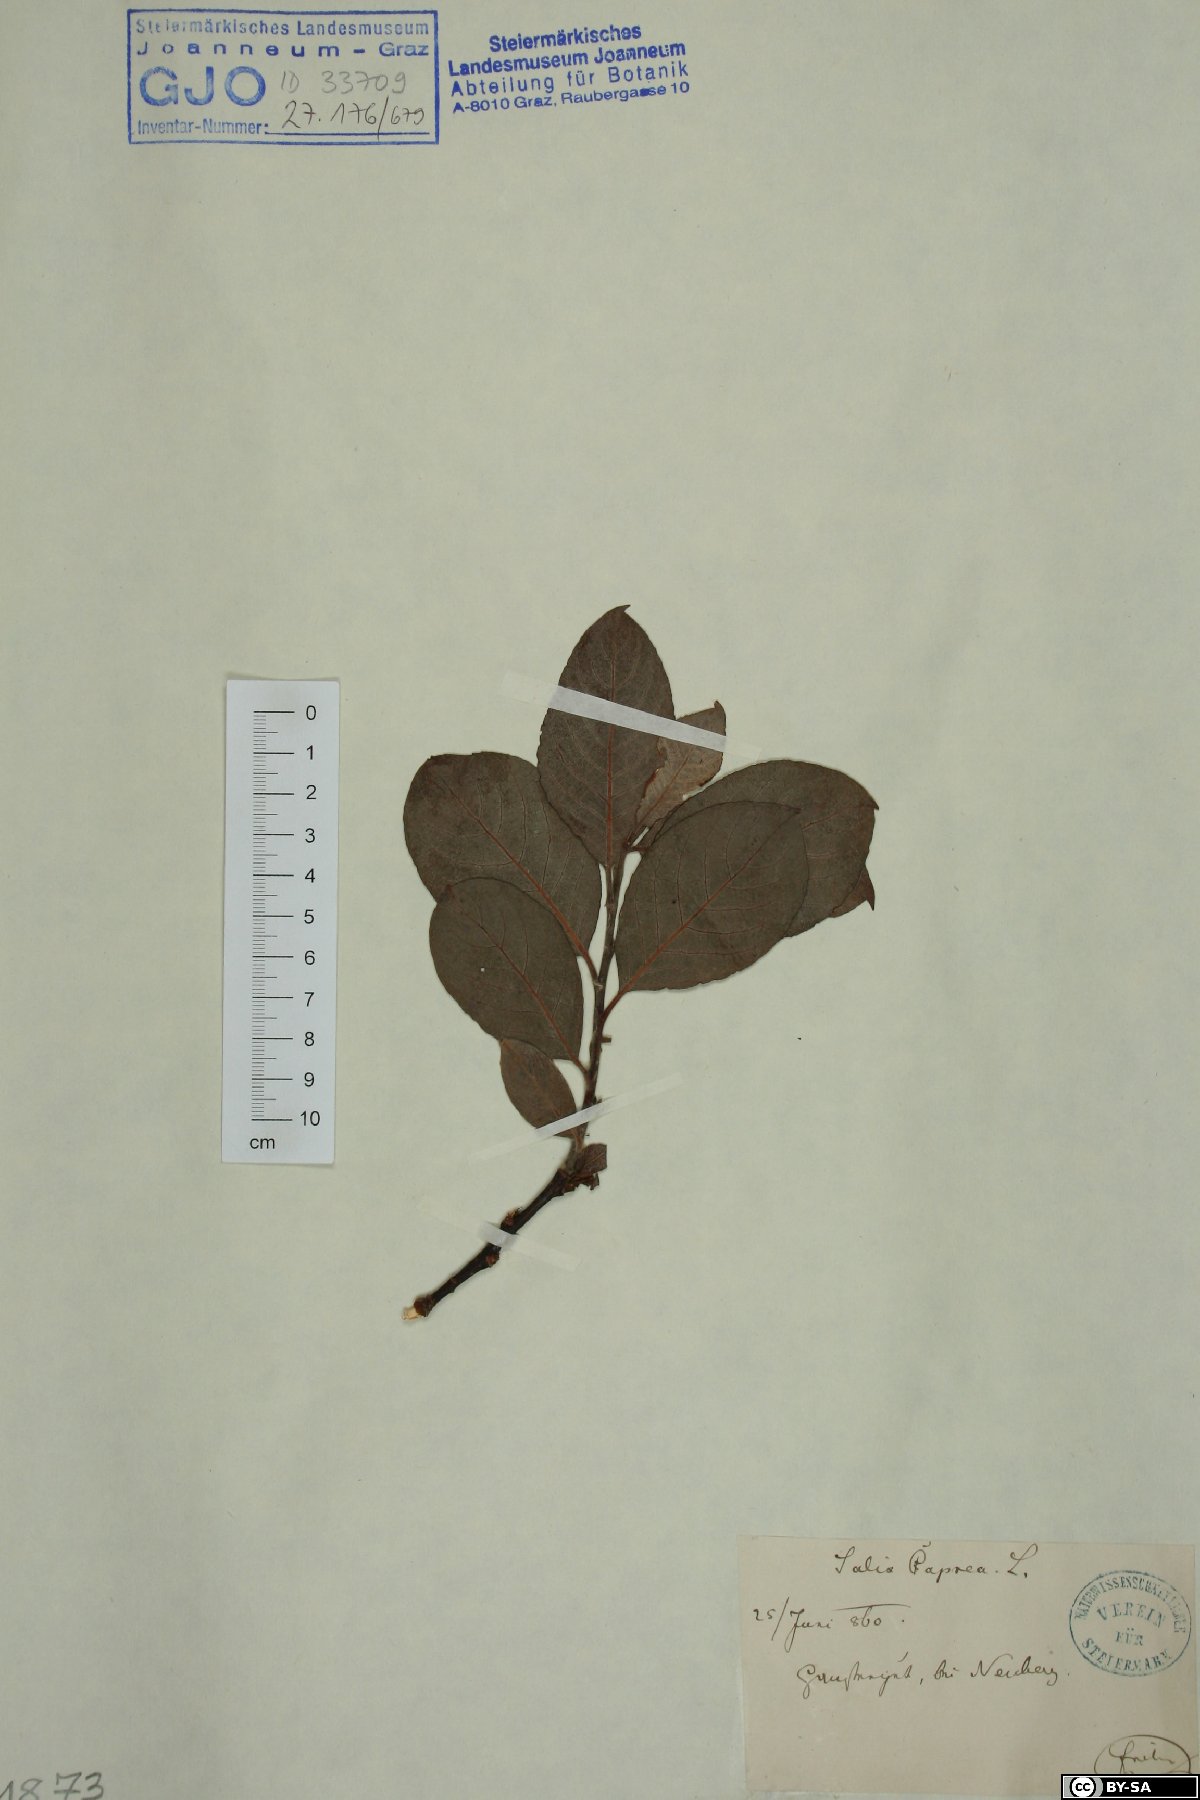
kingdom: Plantae
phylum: Tracheophyta
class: Magnoliopsida
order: Malpighiales
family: Salicaceae
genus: Salix
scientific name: Salix caprea
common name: Goat willow
